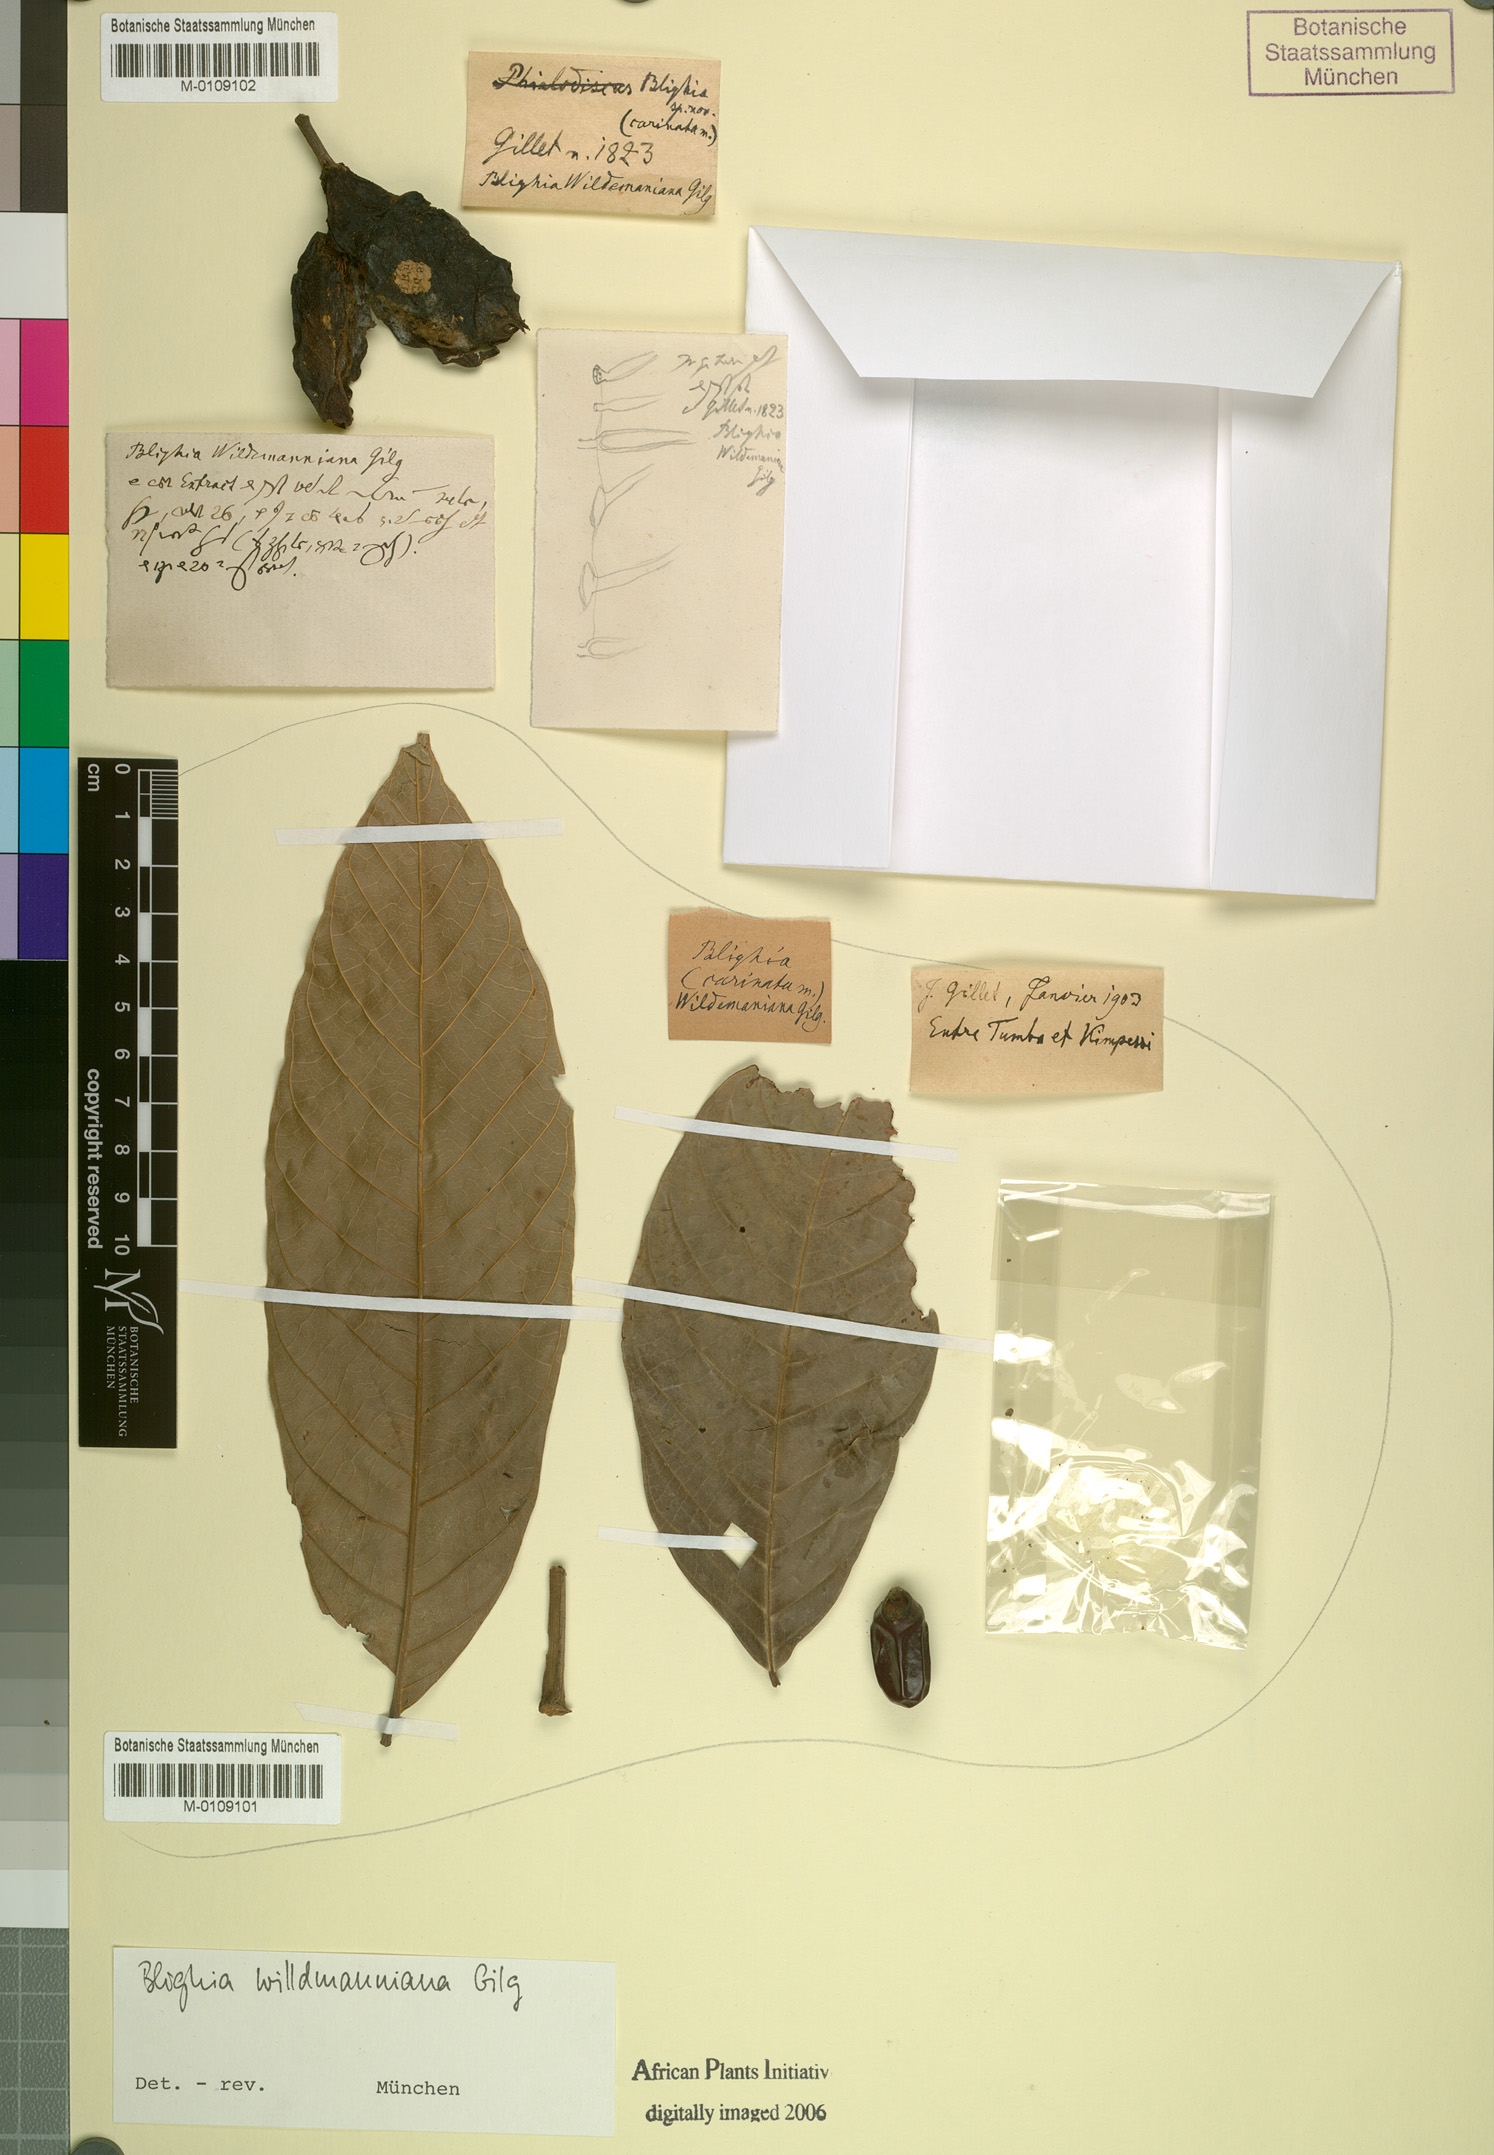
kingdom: Plantae
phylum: Tracheophyta
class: Magnoliopsida
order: Sapindales
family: Sapindaceae
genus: Blighia
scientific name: Blighia welwitschii
